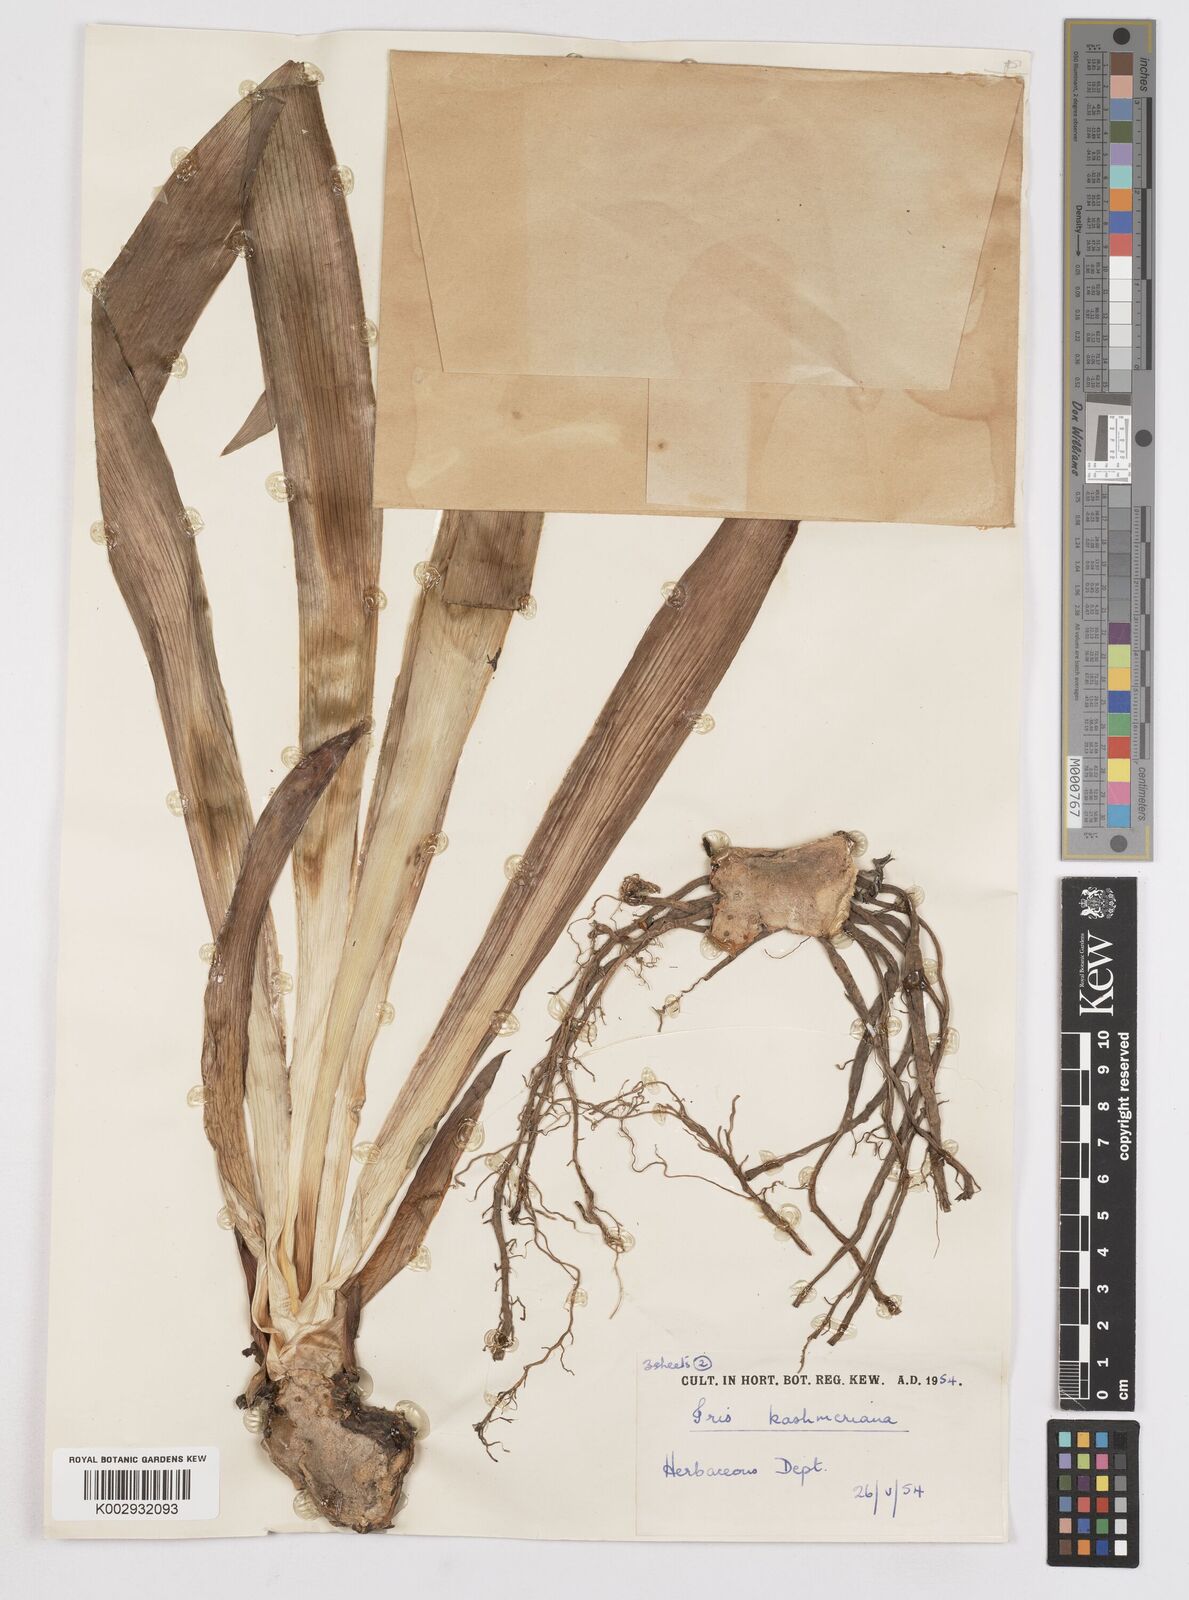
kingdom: Plantae
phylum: Tracheophyta
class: Liliopsida
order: Asparagales
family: Iridaceae
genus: Iris
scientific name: Iris kashmiriana
